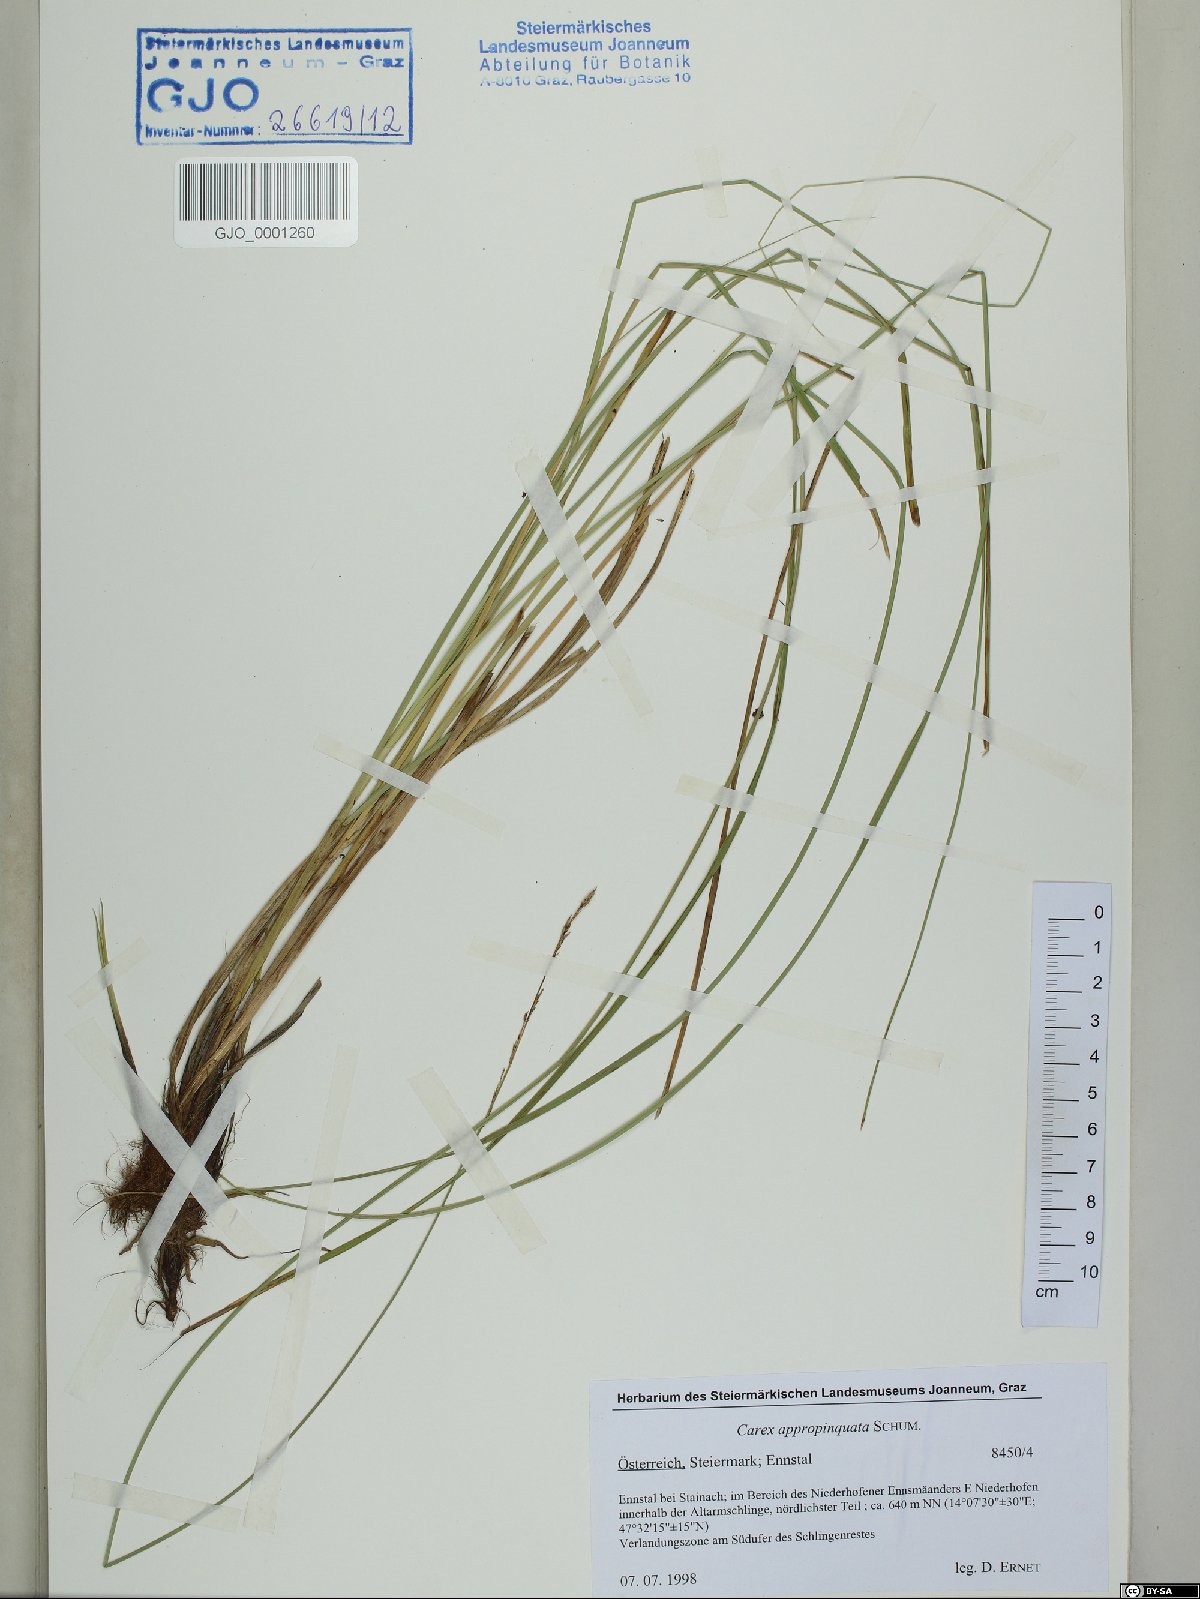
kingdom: Plantae
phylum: Tracheophyta
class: Liliopsida
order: Poales
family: Cyperaceae
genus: Carex
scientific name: Carex appropinquata
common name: Fibrous tussock-sedge
